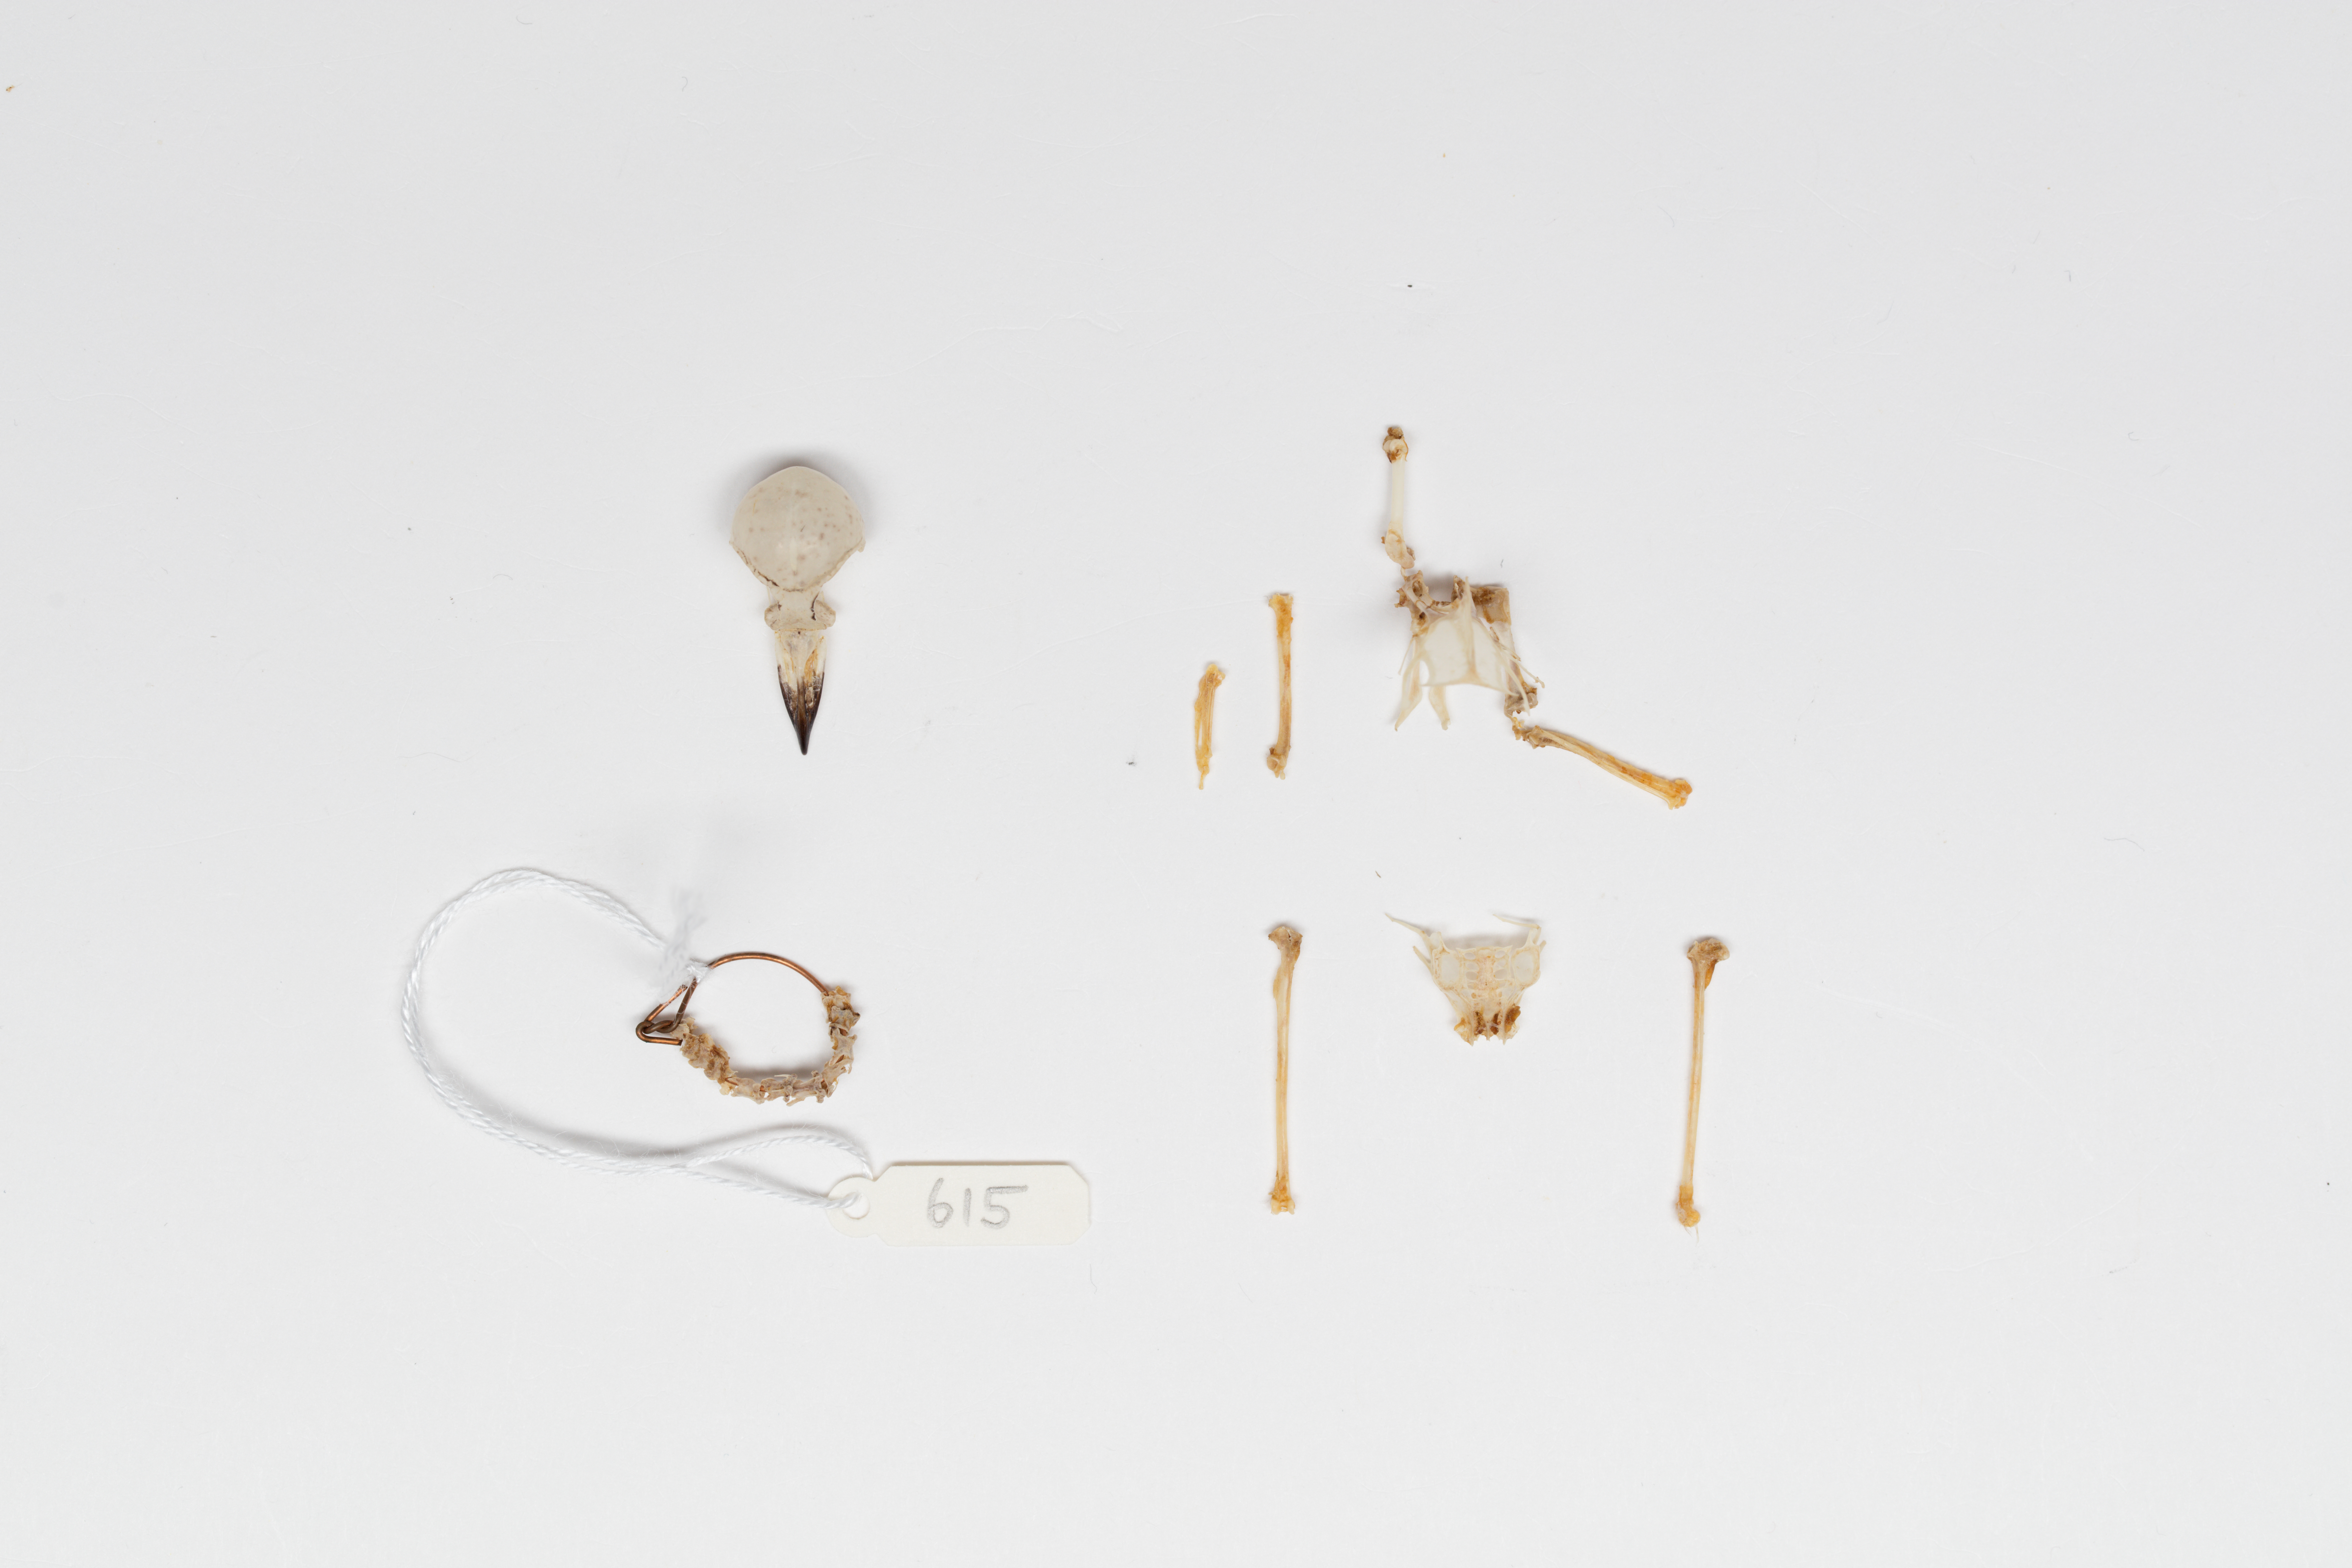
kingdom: Animalia
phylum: Chordata
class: Aves
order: Passeriformes
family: Rhipiduridae
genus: Rhipidura
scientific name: Rhipidura fuliginosa
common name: New zealand fantail
